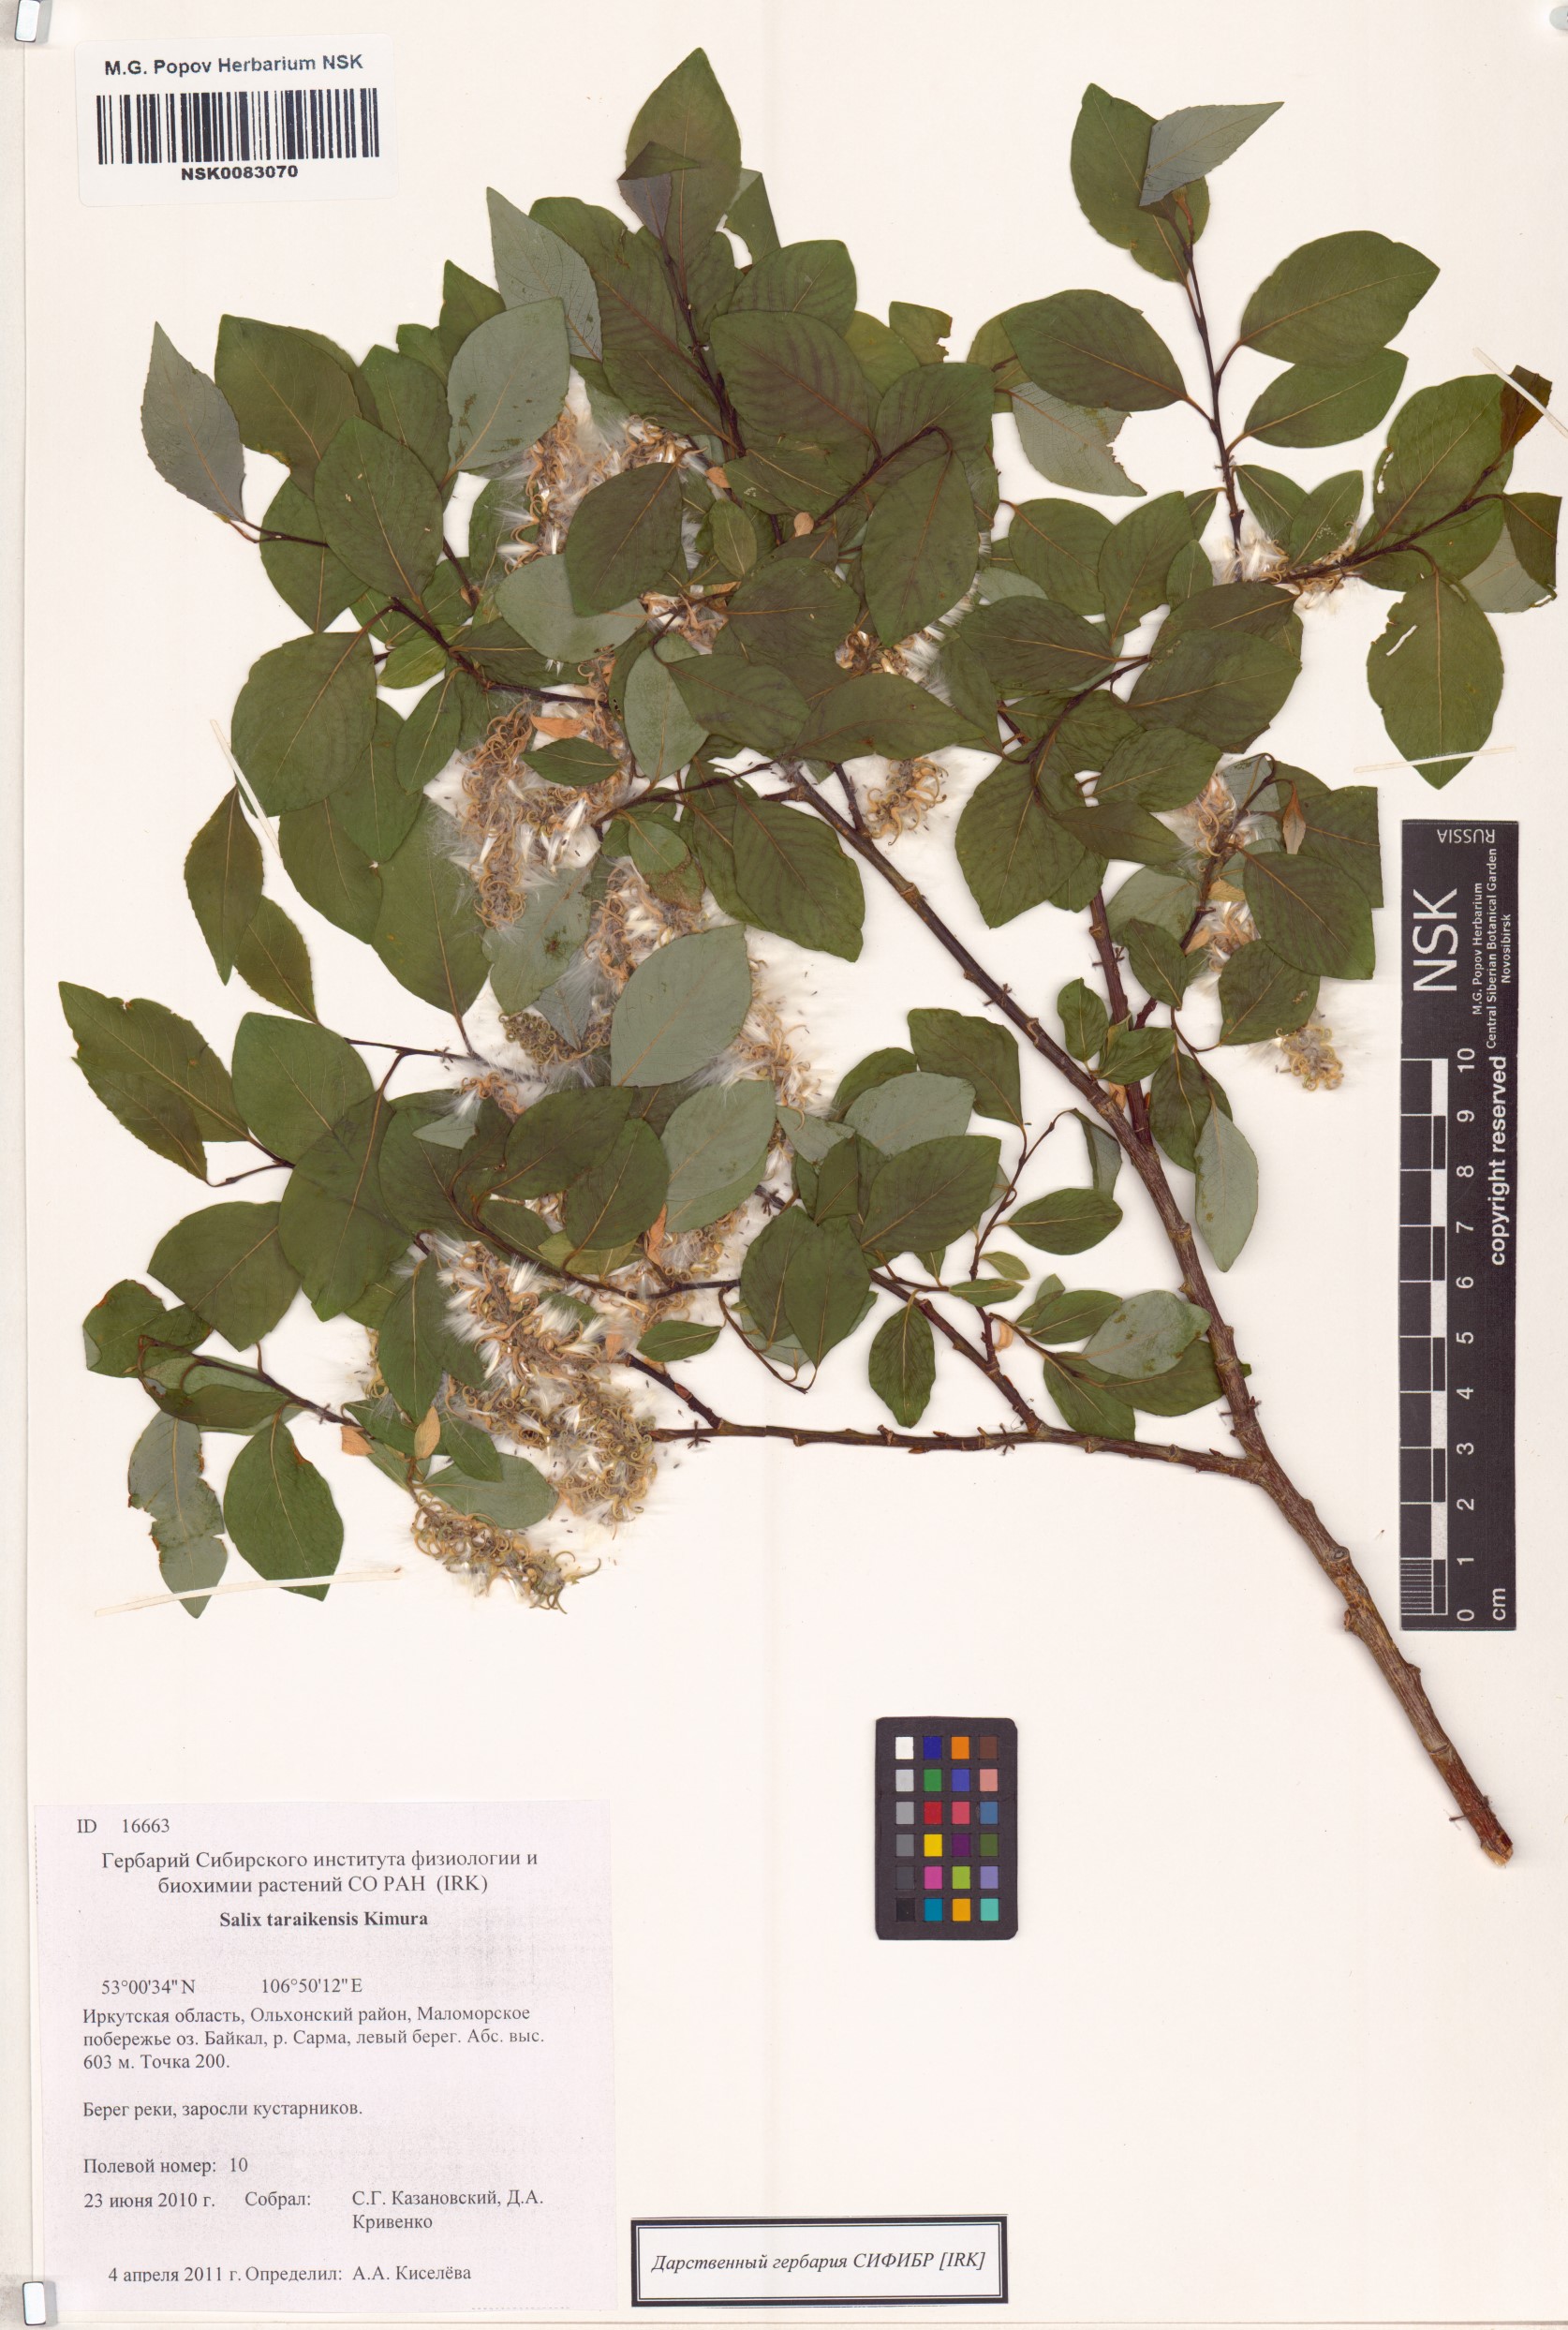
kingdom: Plantae
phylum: Tracheophyta
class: Magnoliopsida
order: Malpighiales
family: Salicaceae
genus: Salix
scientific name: Salix taraikensis
